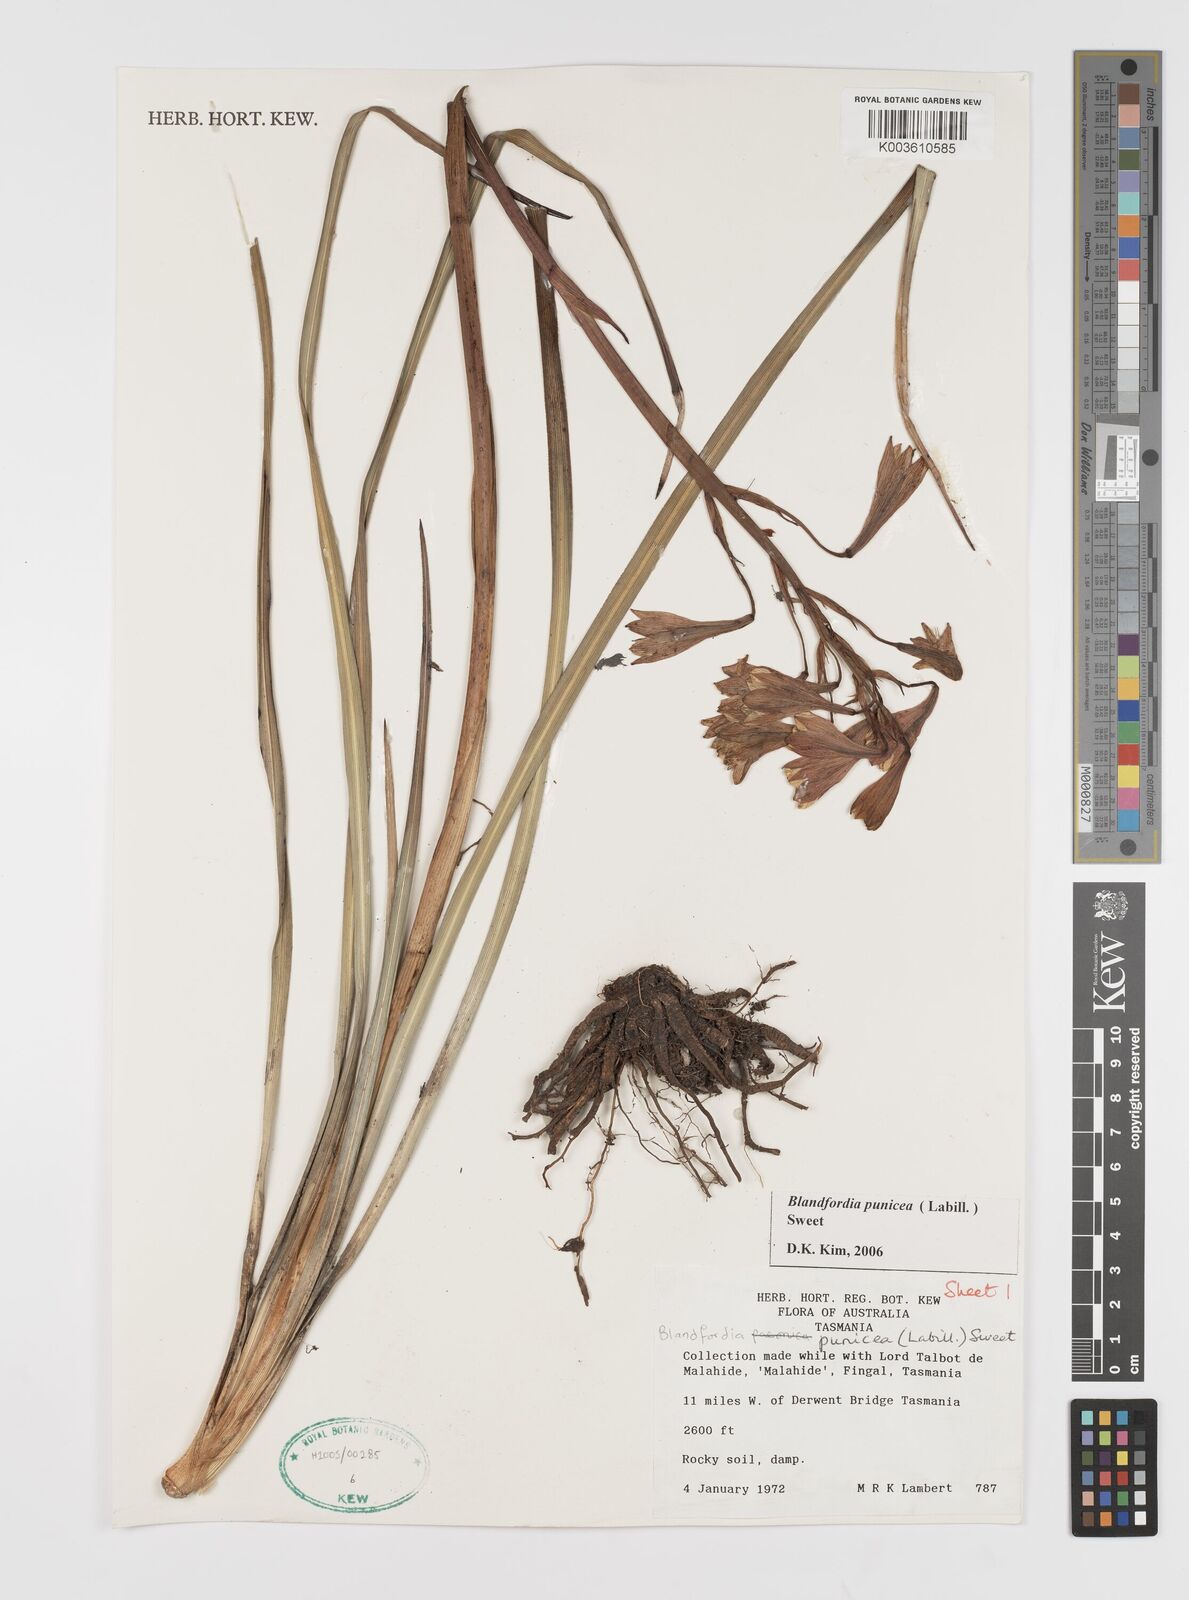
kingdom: Plantae
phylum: Tracheophyta
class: Liliopsida
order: Asparagales
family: Blandfordiaceae
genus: Blandfordia
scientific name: Blandfordia punicea
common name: Tasmanian christmas-bell
